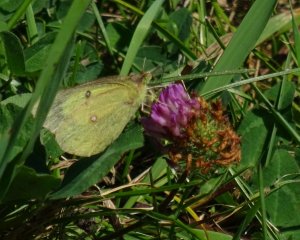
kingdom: Animalia
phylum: Arthropoda
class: Insecta
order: Lepidoptera
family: Pieridae
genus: Colias
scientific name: Colias philodice
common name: Clouded Sulphur
